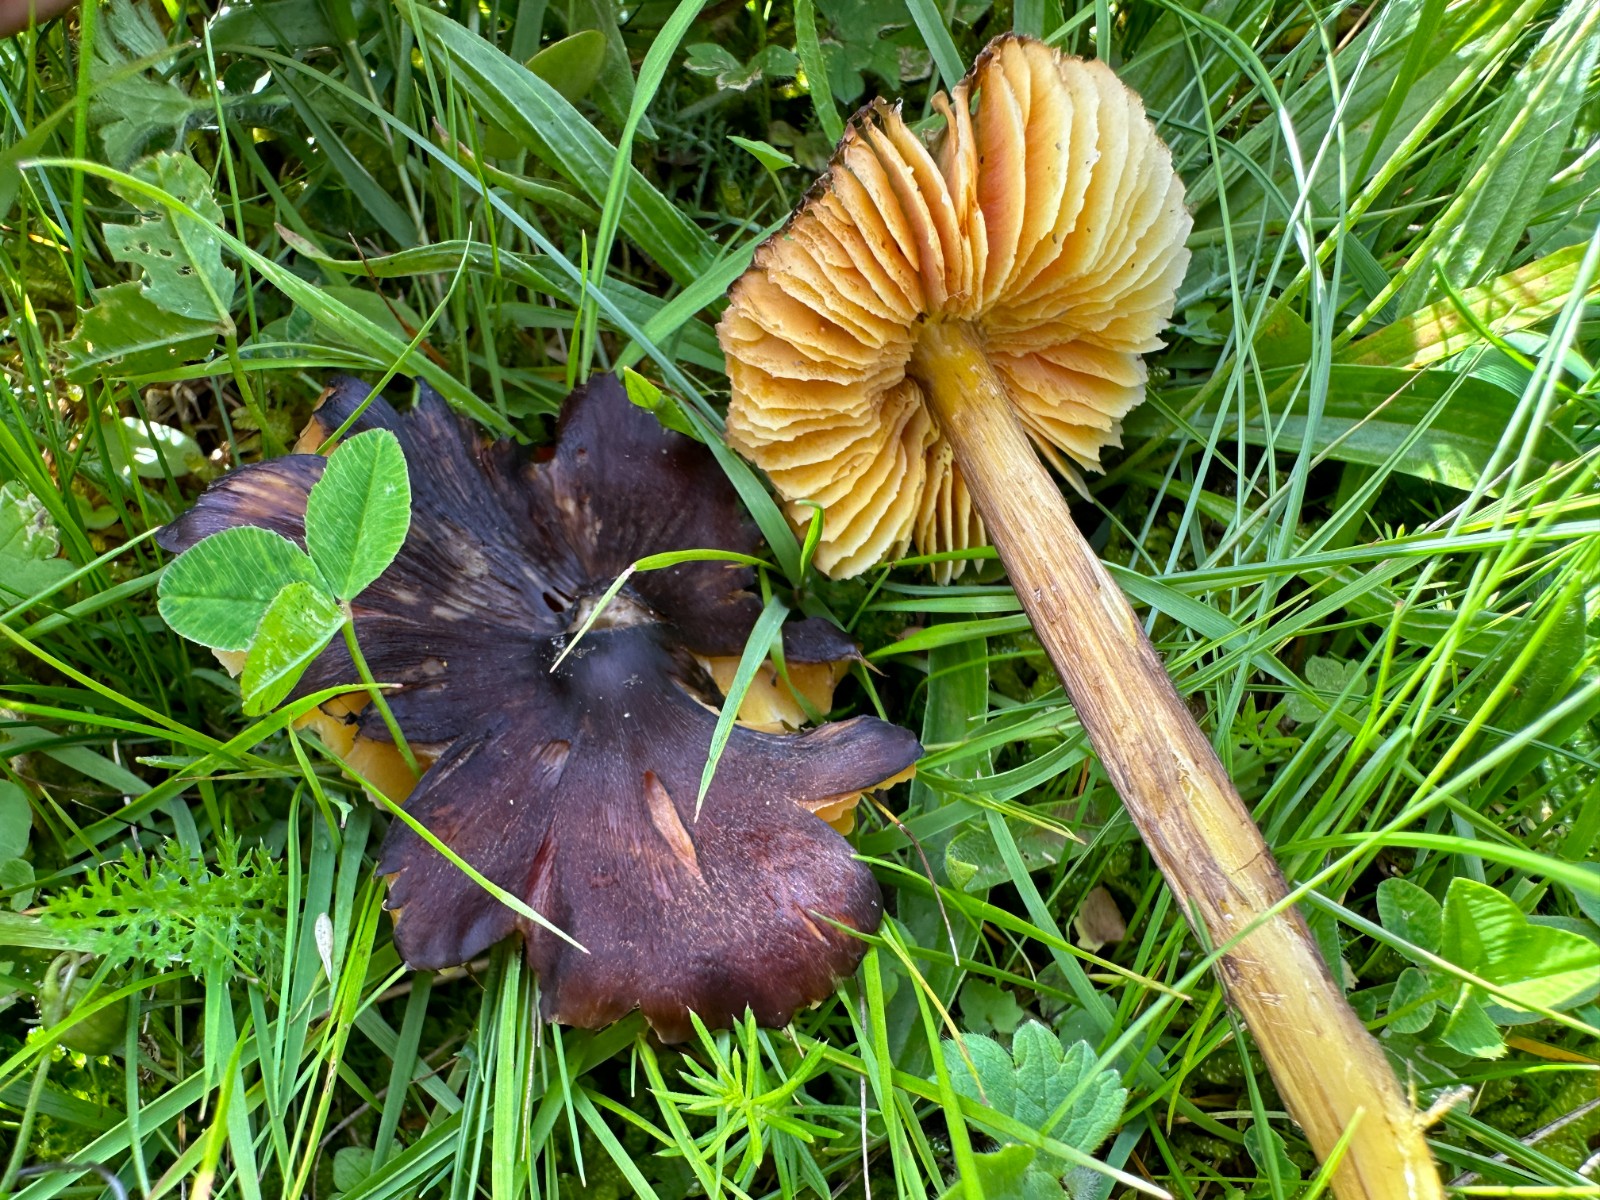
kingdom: Fungi
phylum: Basidiomycota
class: Agaricomycetes
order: Agaricales
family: Hygrophoraceae
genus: Hygrocybe
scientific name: Hygrocybe spadicea
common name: daddelbrun vokshat
